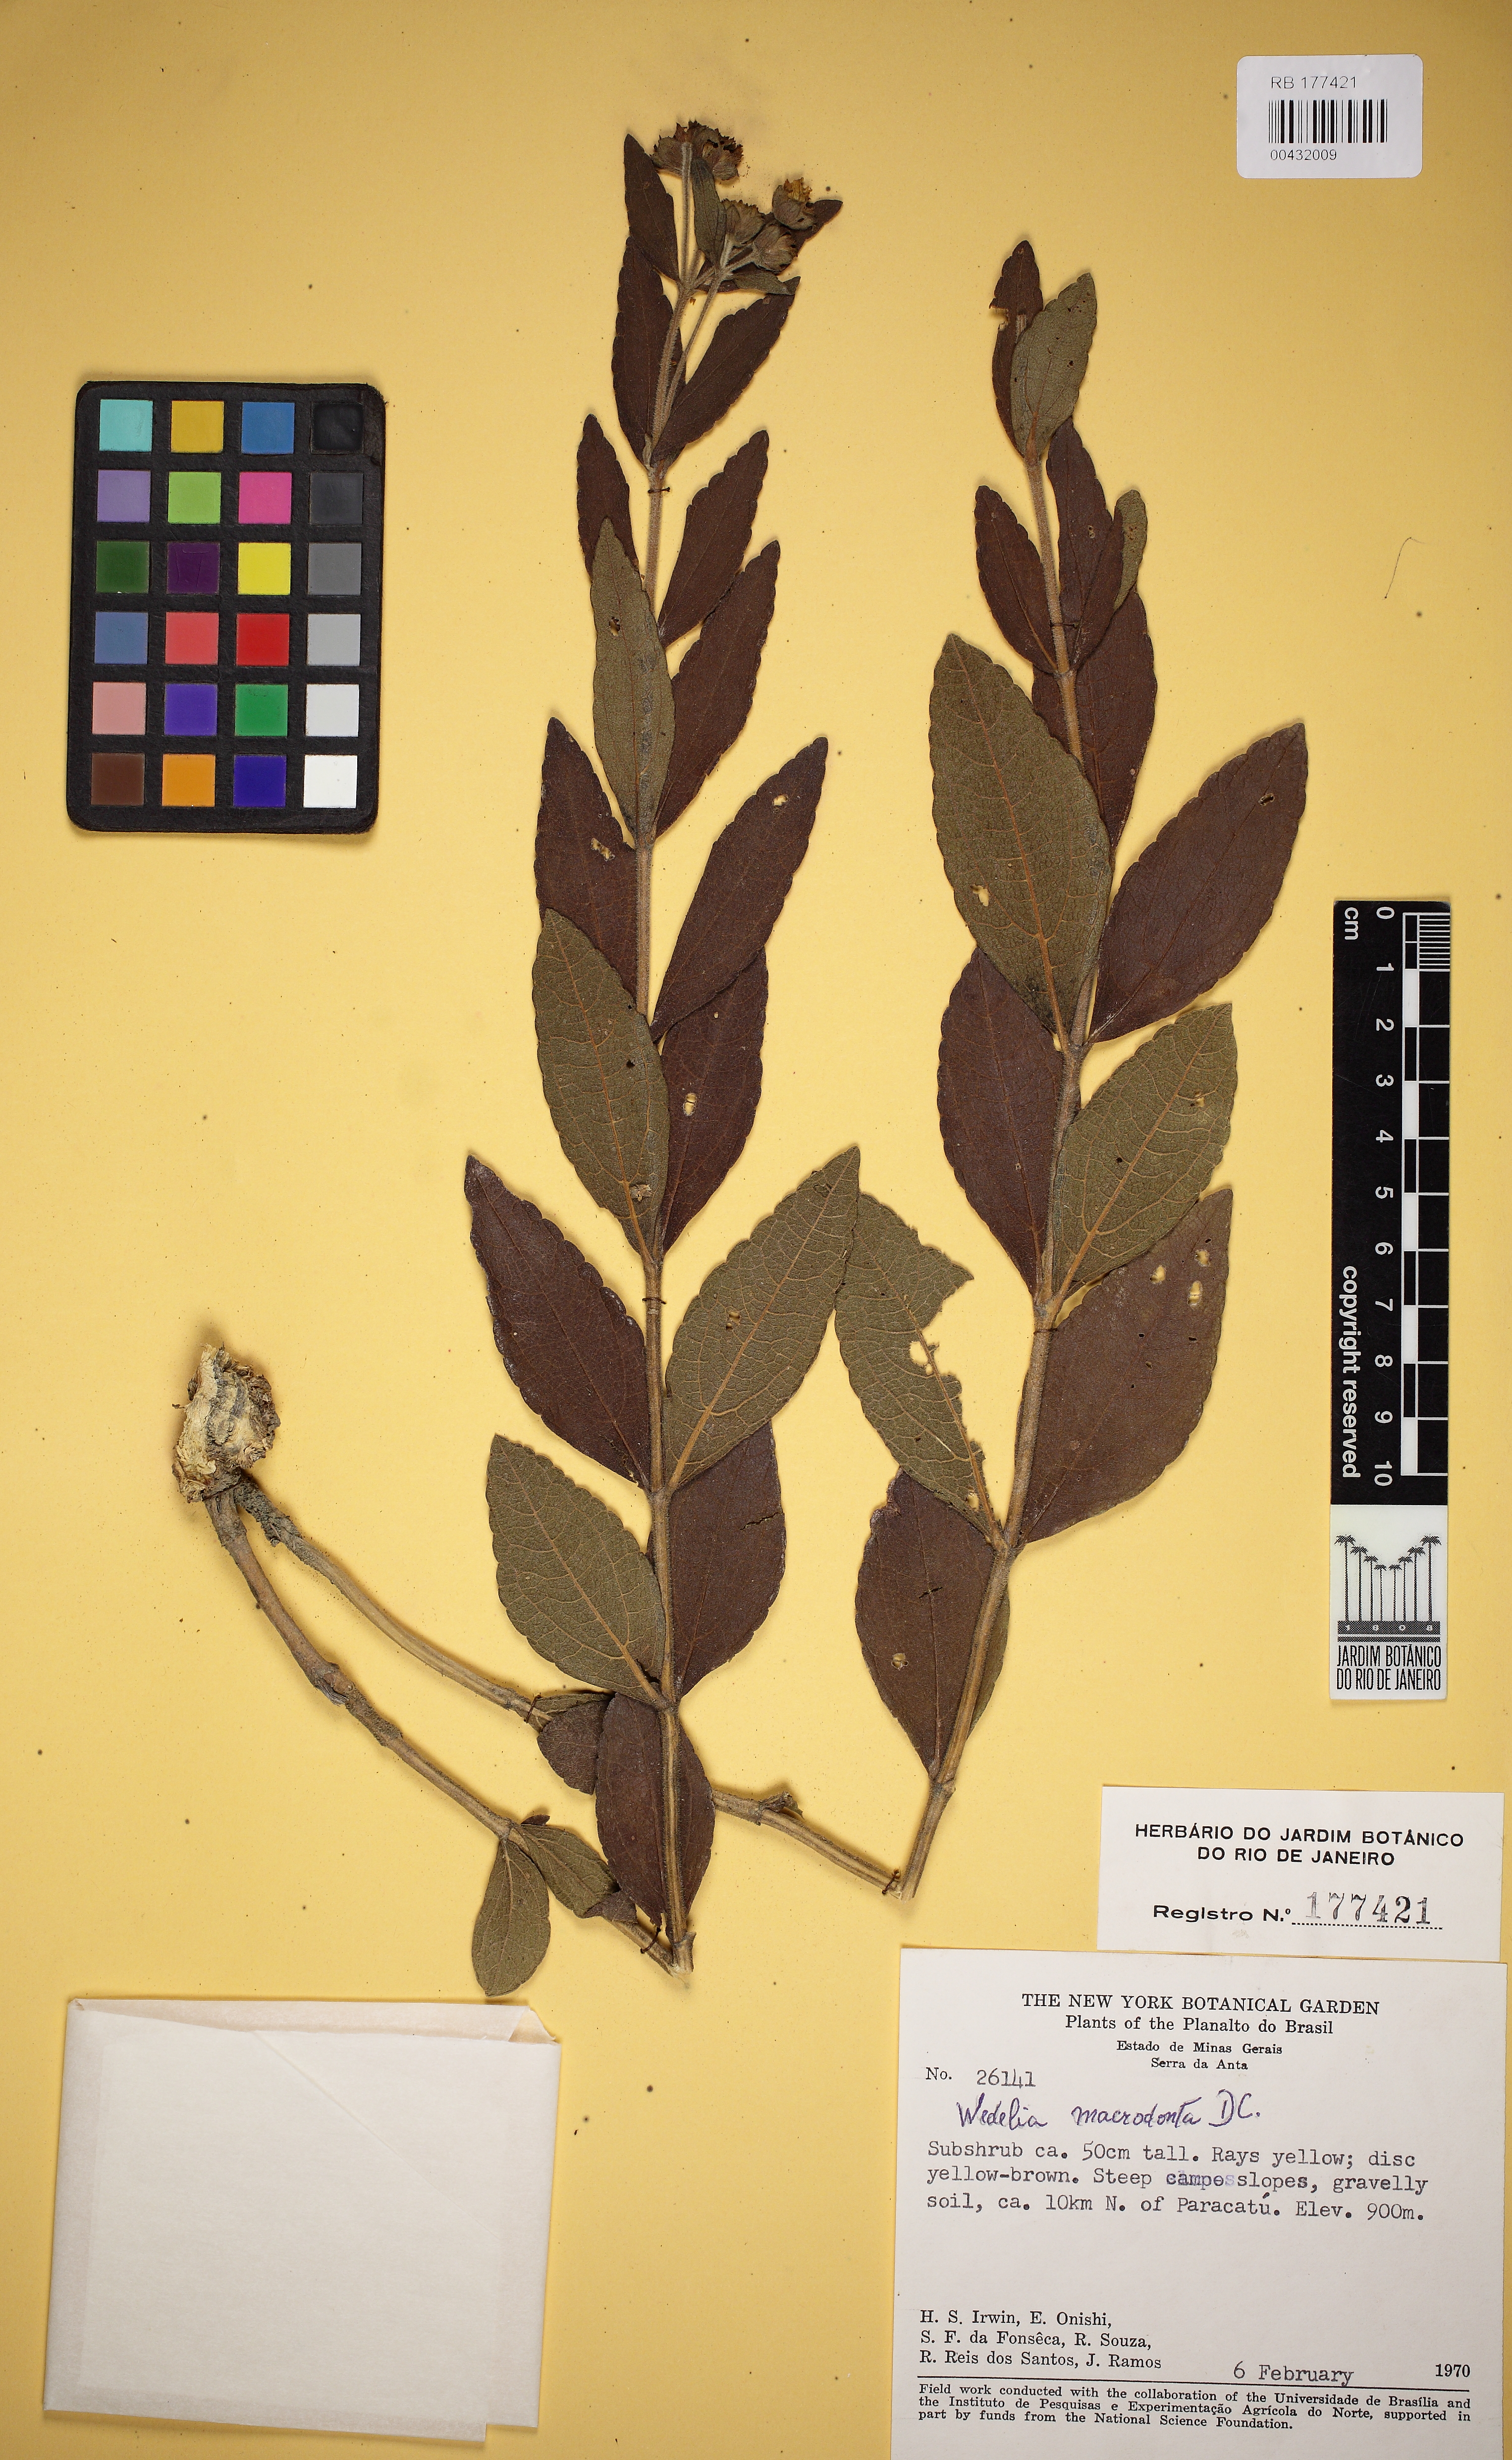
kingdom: Plantae
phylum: Tracheophyta
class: Magnoliopsida
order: Asterales
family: Asteraceae
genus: Wedelia
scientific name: Wedelia regis
